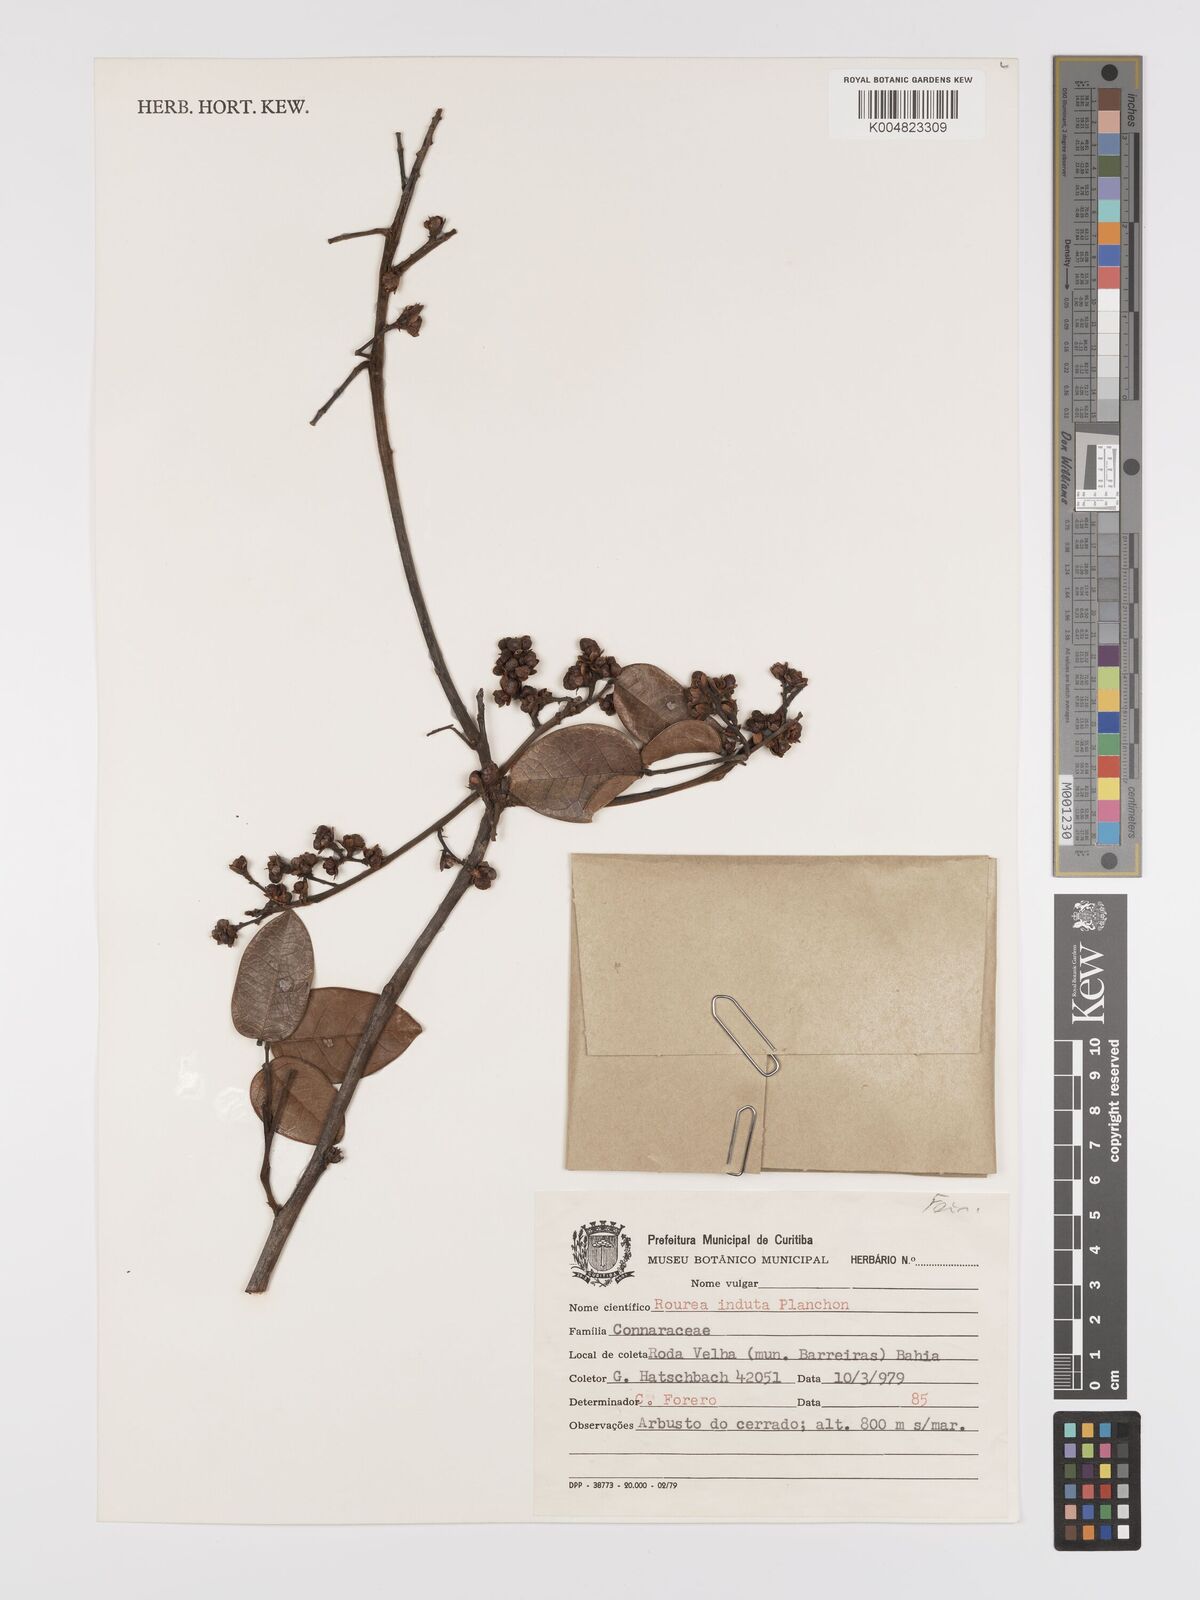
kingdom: Plantae
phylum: Tracheophyta
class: Magnoliopsida
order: Oxalidales
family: Connaraceae
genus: Rourea
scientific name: Rourea induta
